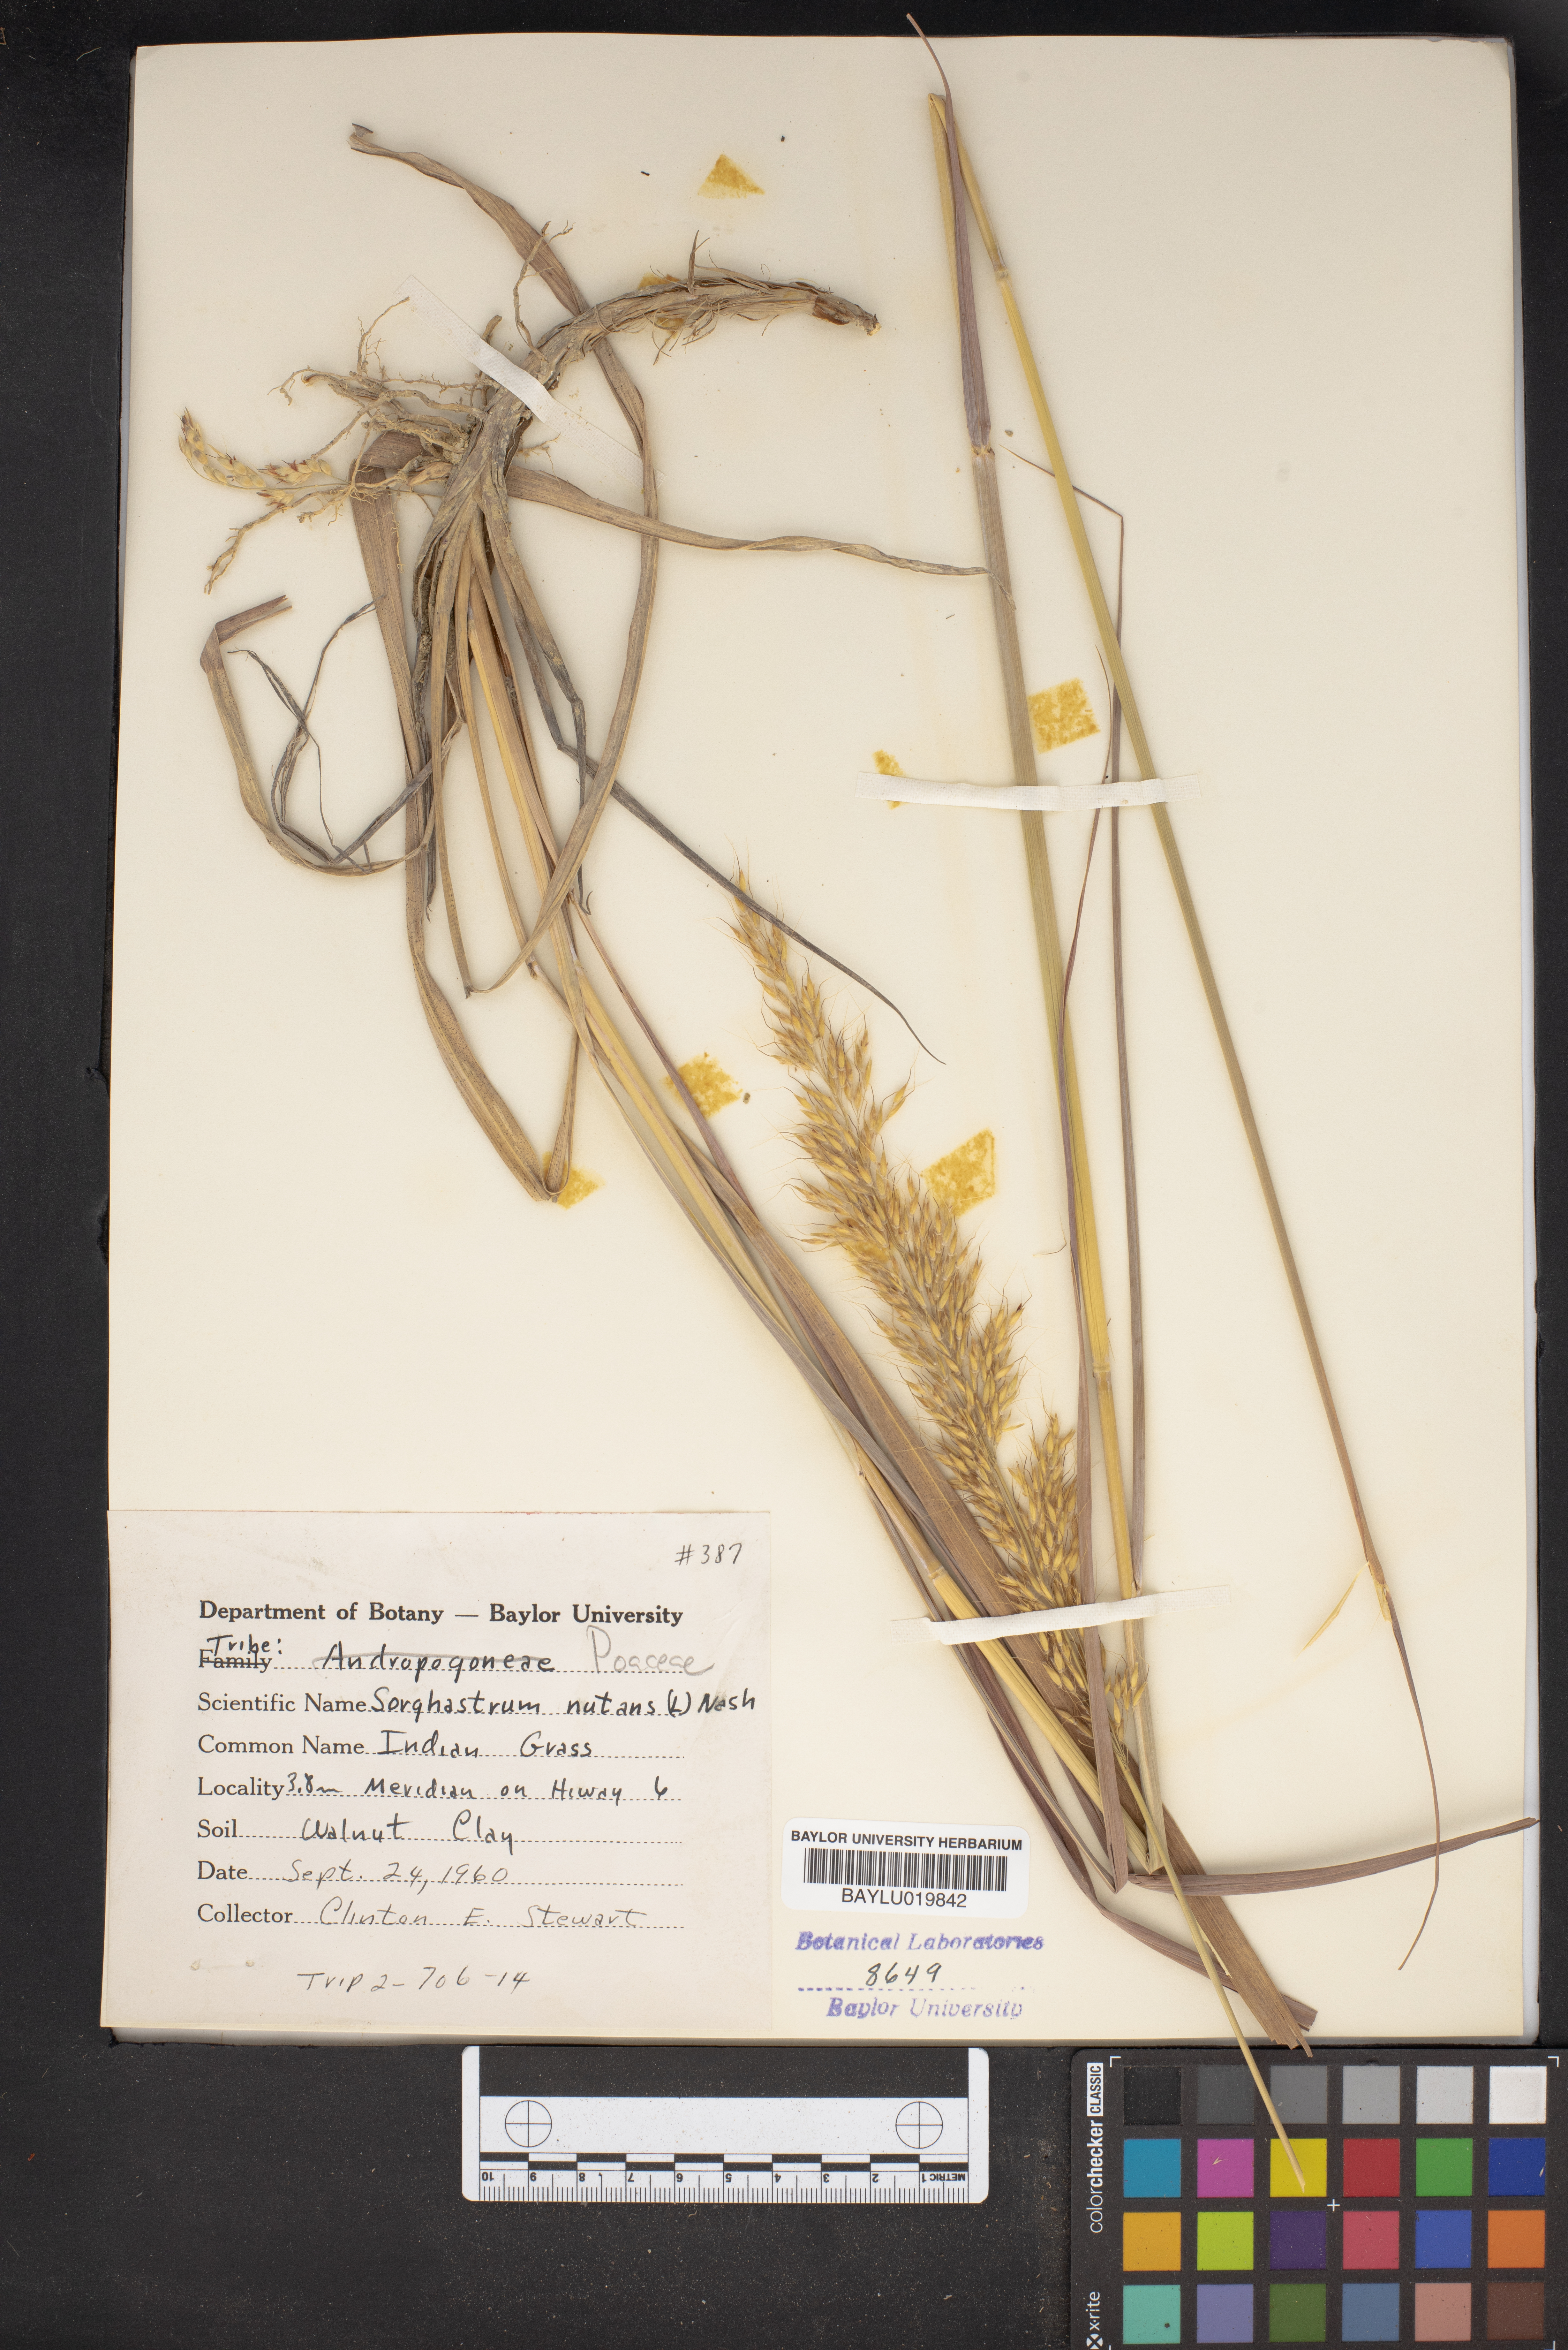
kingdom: Plantae
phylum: Tracheophyta
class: Liliopsida
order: Poales
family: Poaceae
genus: Sorghastrum
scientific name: Sorghastrum nutans
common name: Indian grass
